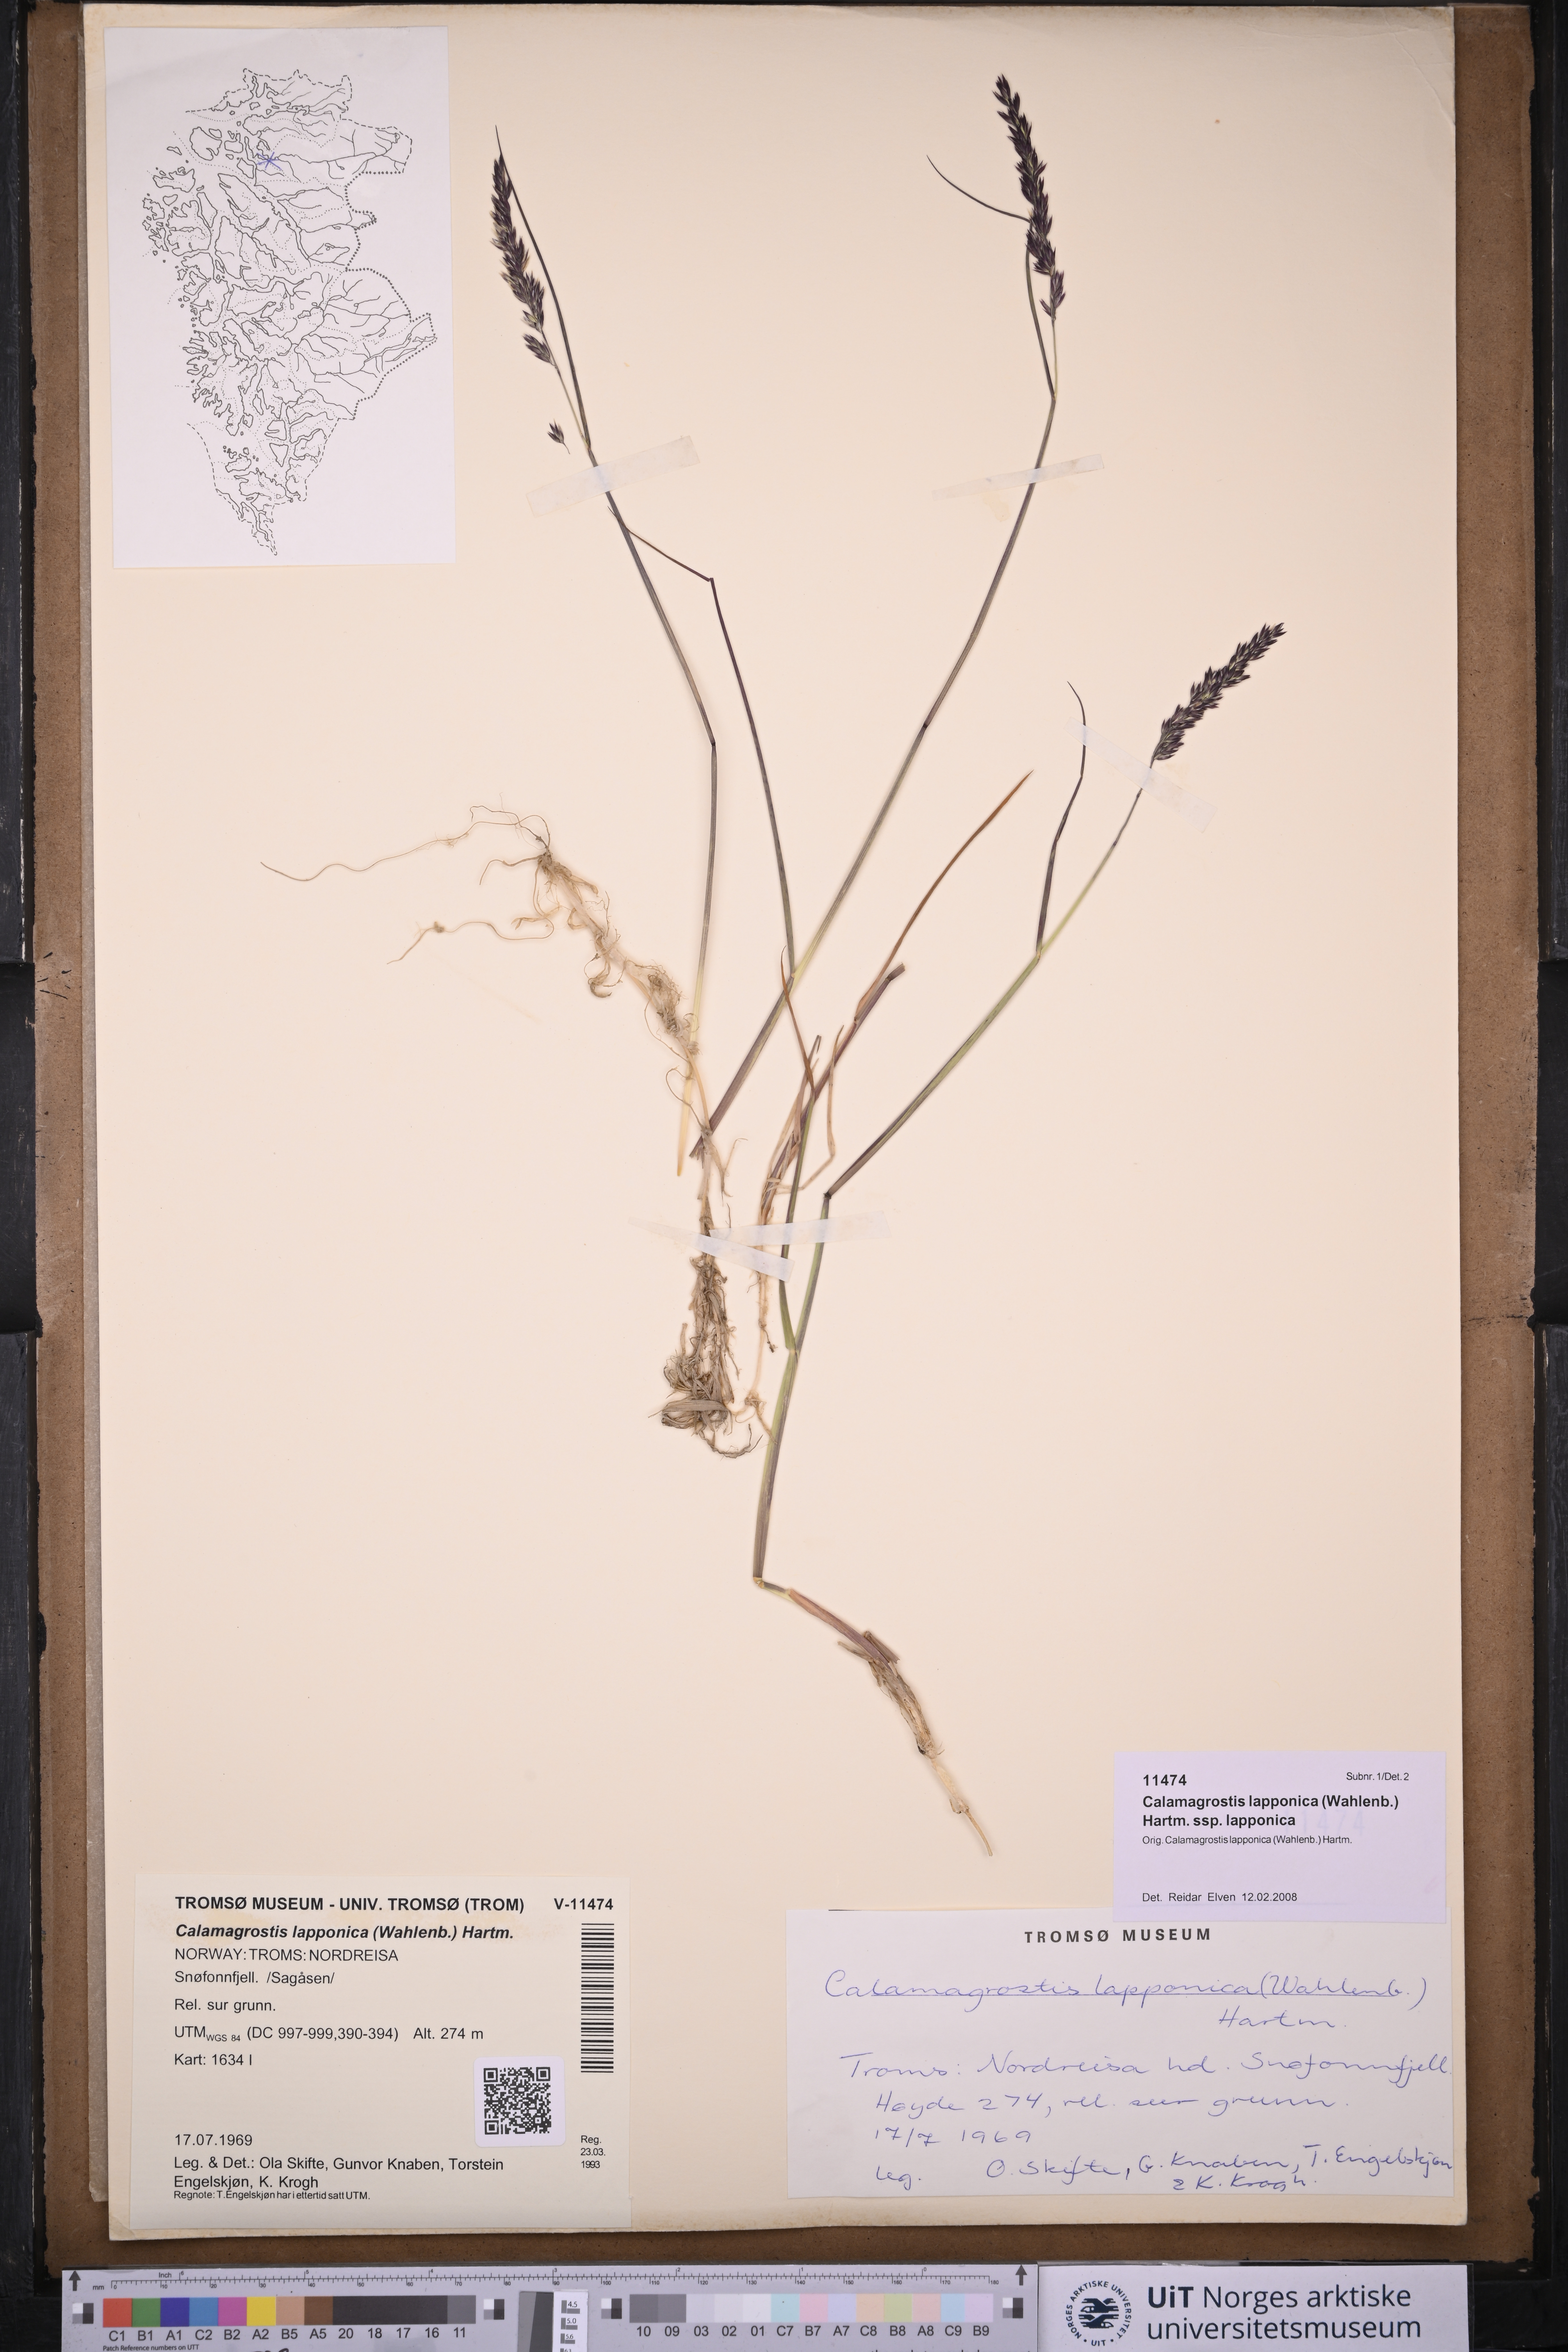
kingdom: Plantae
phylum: Tracheophyta
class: Liliopsida
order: Poales
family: Poaceae
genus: Calamagrostis
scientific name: Calamagrostis lapponica
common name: Lapland reedgrass
